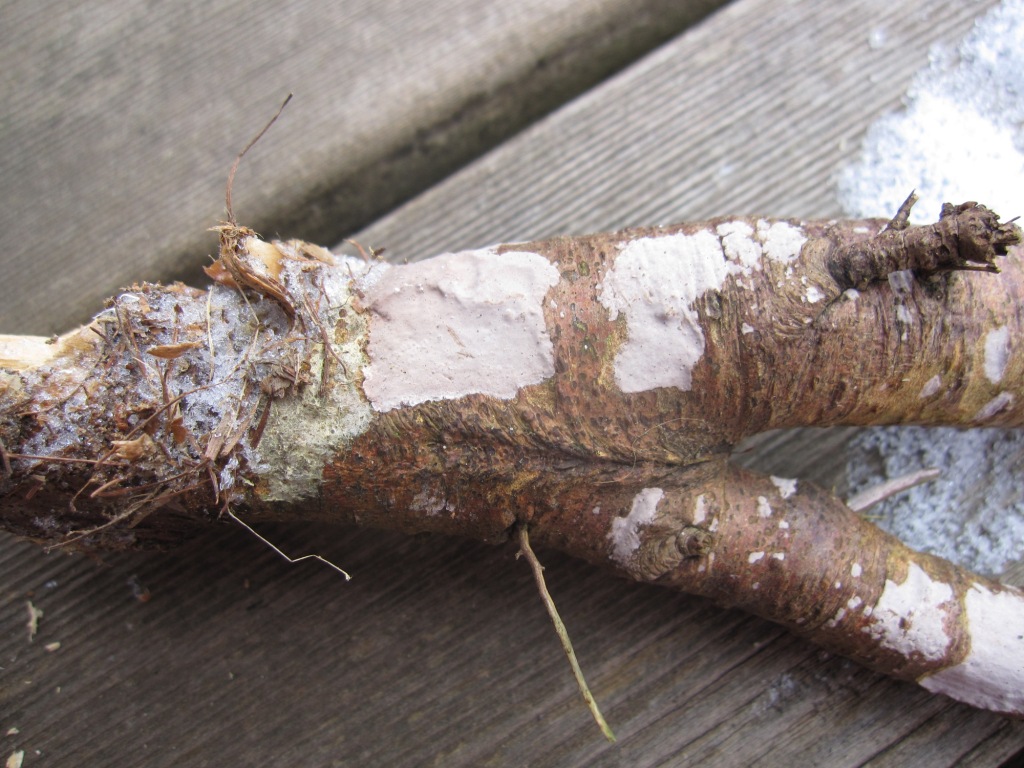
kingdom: Fungi
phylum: Basidiomycota
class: Agaricomycetes
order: Russulales
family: Peniophoraceae
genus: Peniophora
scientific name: Peniophora cinerea
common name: grå voksskind
